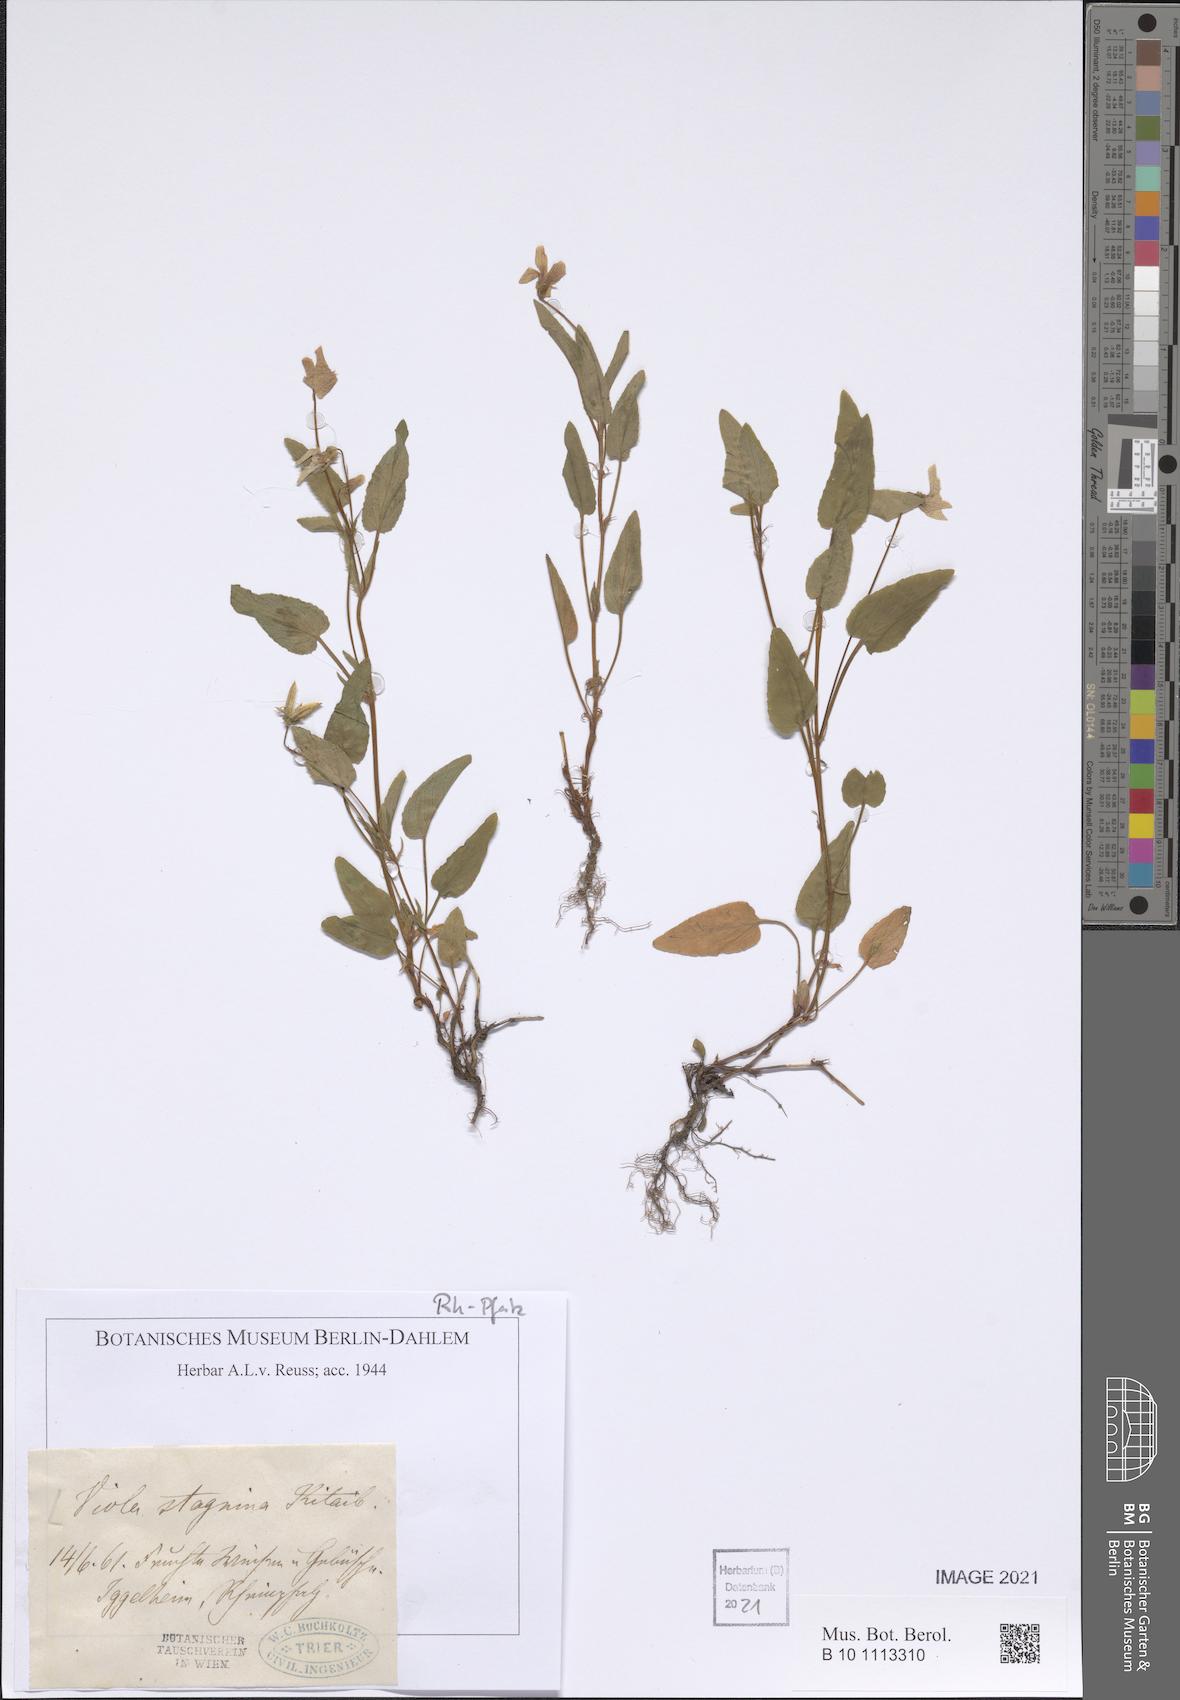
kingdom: Plantae
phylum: Tracheophyta
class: Magnoliopsida
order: Malpighiales
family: Violaceae
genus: Viola
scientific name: Viola stagnina
